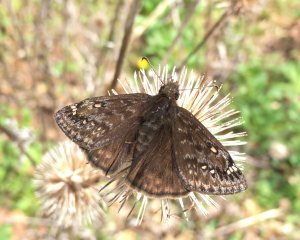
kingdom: Animalia
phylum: Arthropoda
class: Insecta
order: Lepidoptera
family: Hesperiidae
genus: Gesta
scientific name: Gesta
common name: Juvenal's Duskywing
